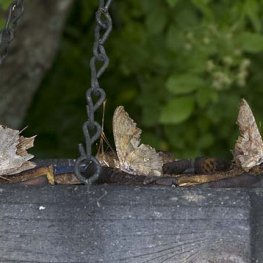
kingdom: Animalia
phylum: Arthropoda
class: Insecta
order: Lepidoptera
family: Nymphalidae
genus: Vanessa
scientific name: Vanessa atalanta
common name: Red Admiral
